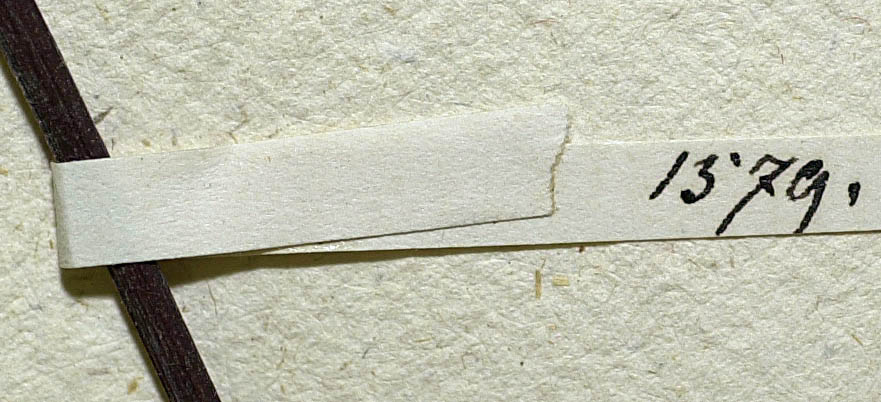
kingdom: Plantae
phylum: Tracheophyta
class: Magnoliopsida
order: Asterales
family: Asteraceae
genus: Mikania
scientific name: Mikania glauca
